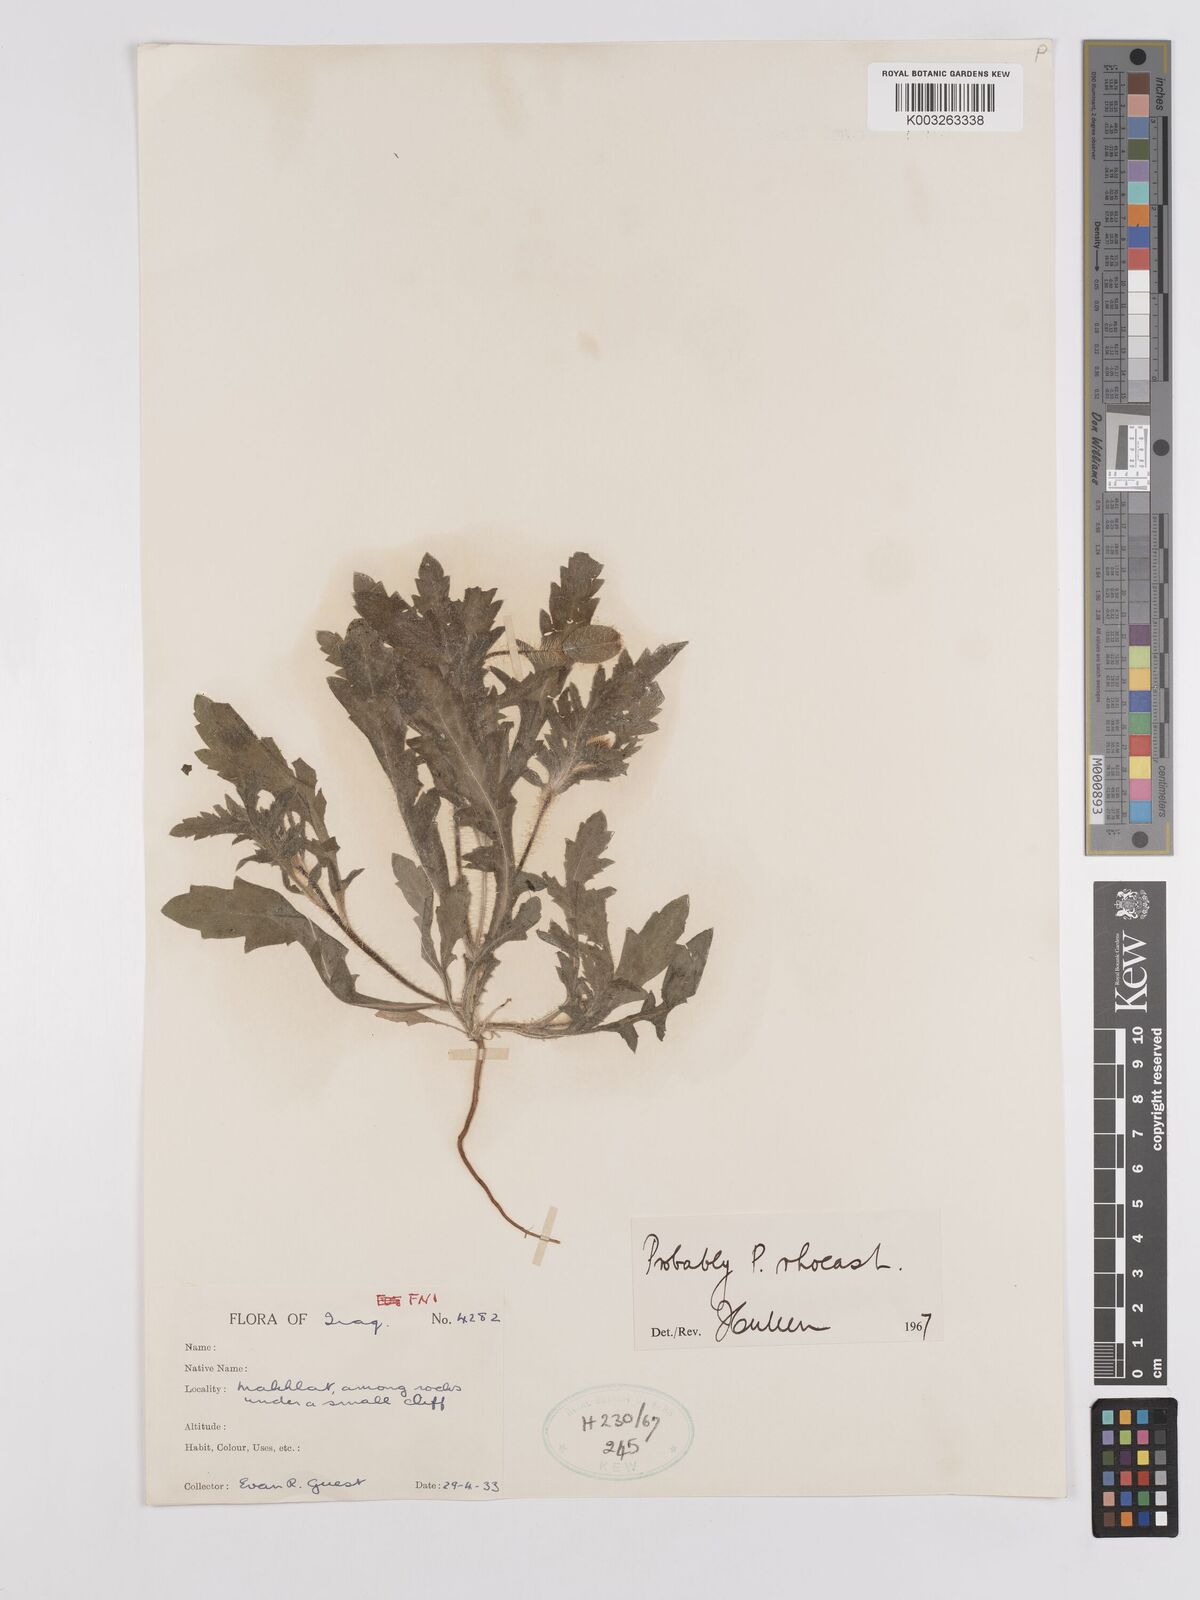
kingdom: Plantae
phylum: Tracheophyta
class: Magnoliopsida
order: Ranunculales
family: Papaveraceae
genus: Papaver
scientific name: Papaver rhoeas
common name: Corn poppy
